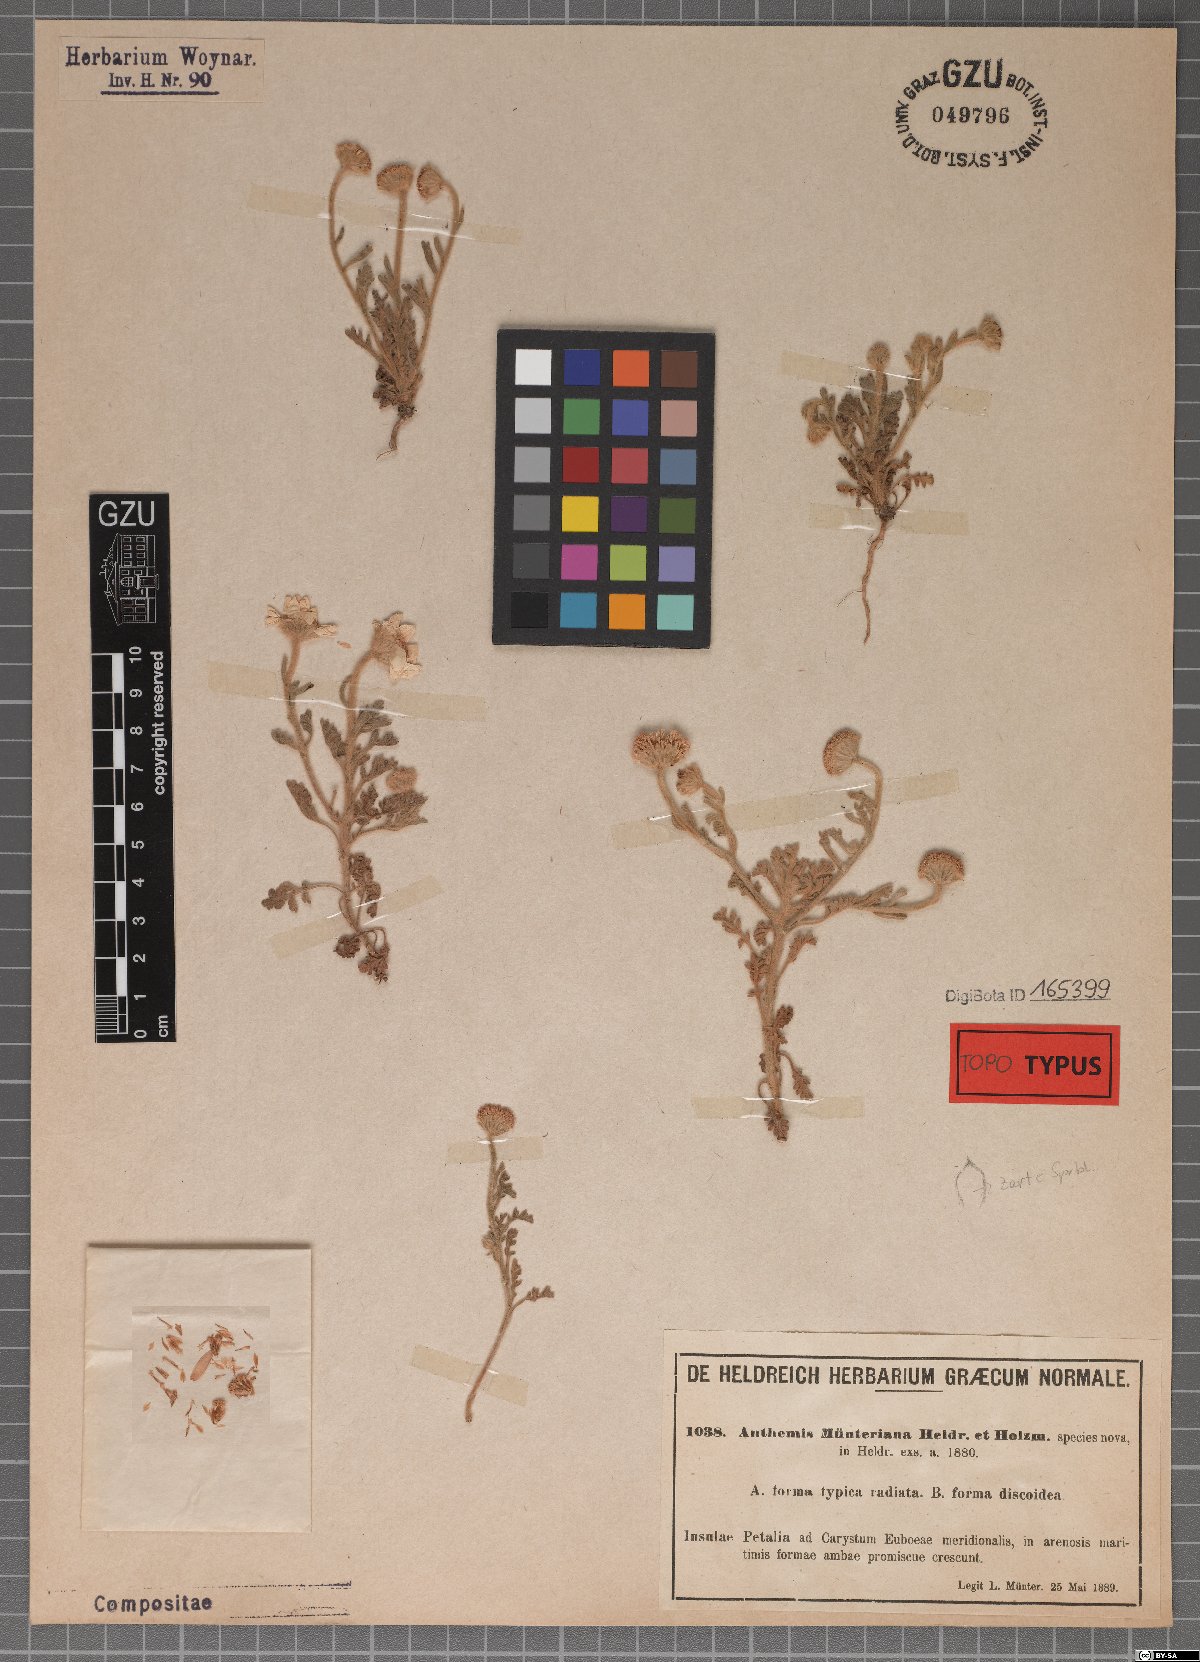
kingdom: Plantae
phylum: Tracheophyta
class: Magnoliopsida
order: Asterales
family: Asteraceae
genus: Anthemis
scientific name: Anthemis tomentosa
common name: Woolly chamomile
